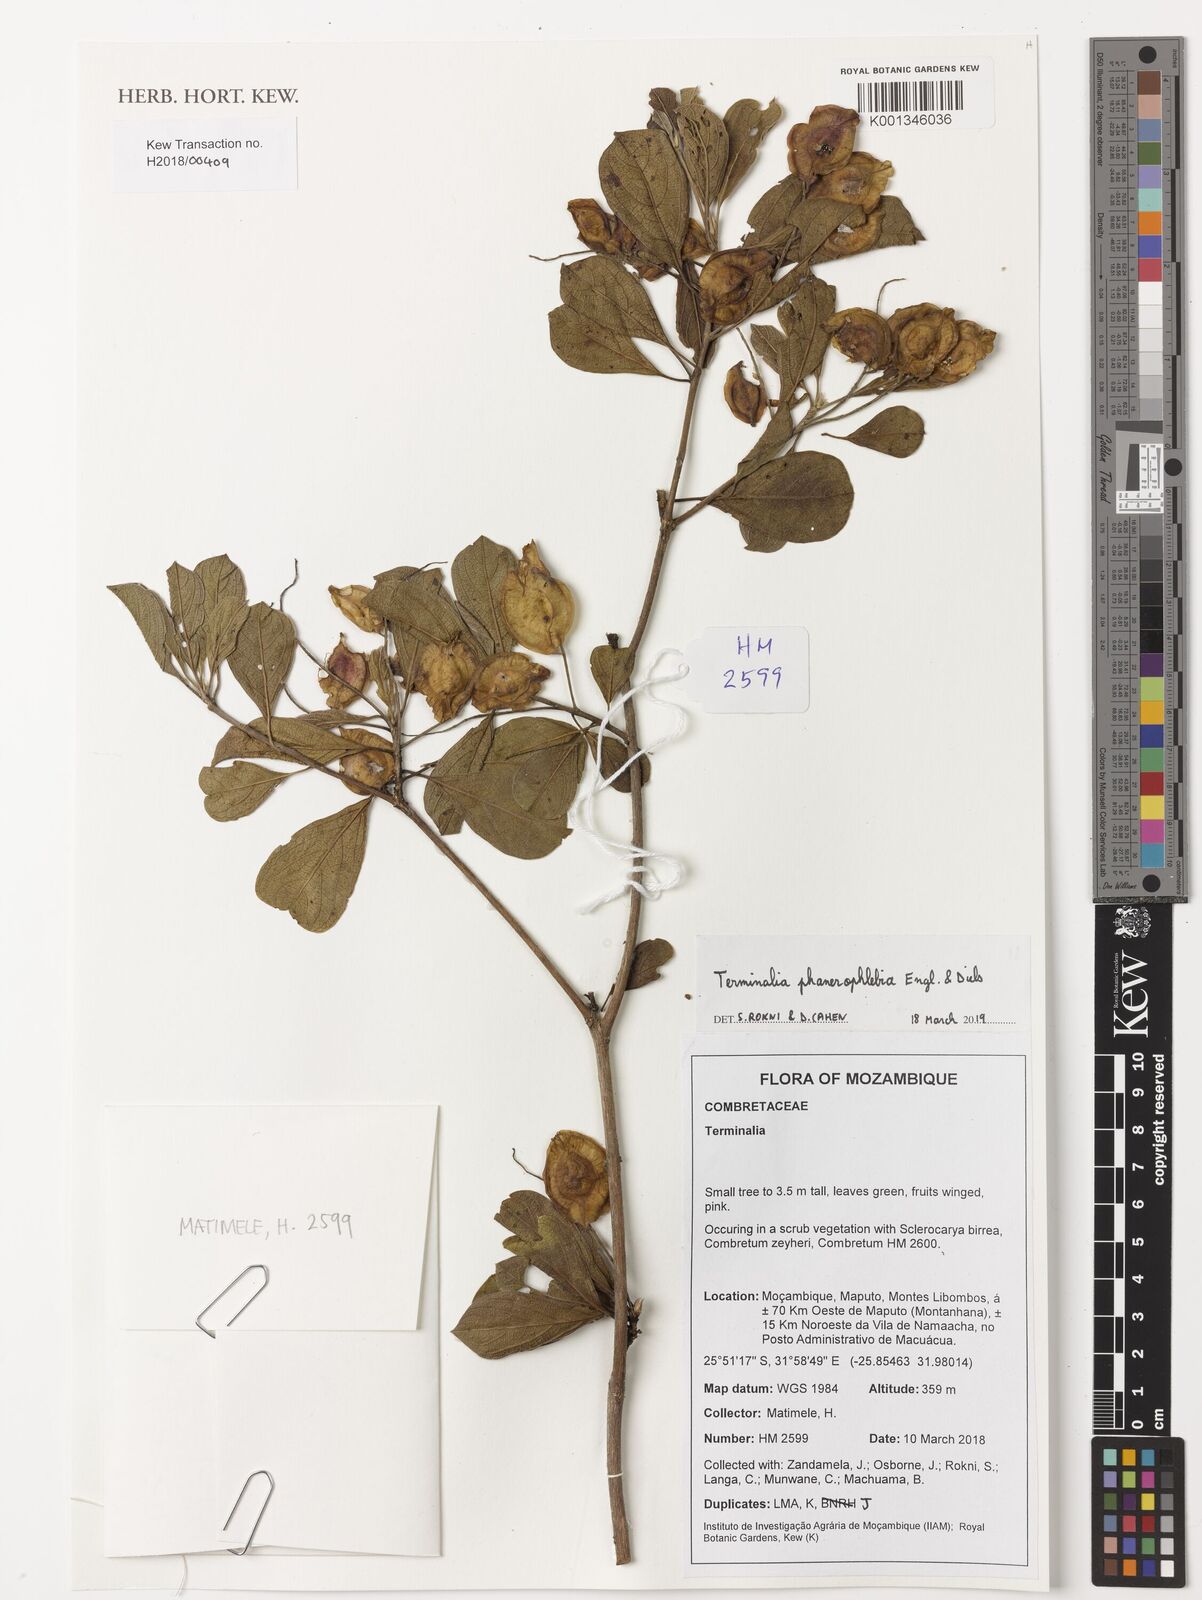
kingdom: Plantae
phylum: Tracheophyta
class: Magnoliopsida
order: Myrtales
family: Combretaceae
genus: Terminalia
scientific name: Terminalia phanerophlebia
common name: Lebombo cluster-leaf
